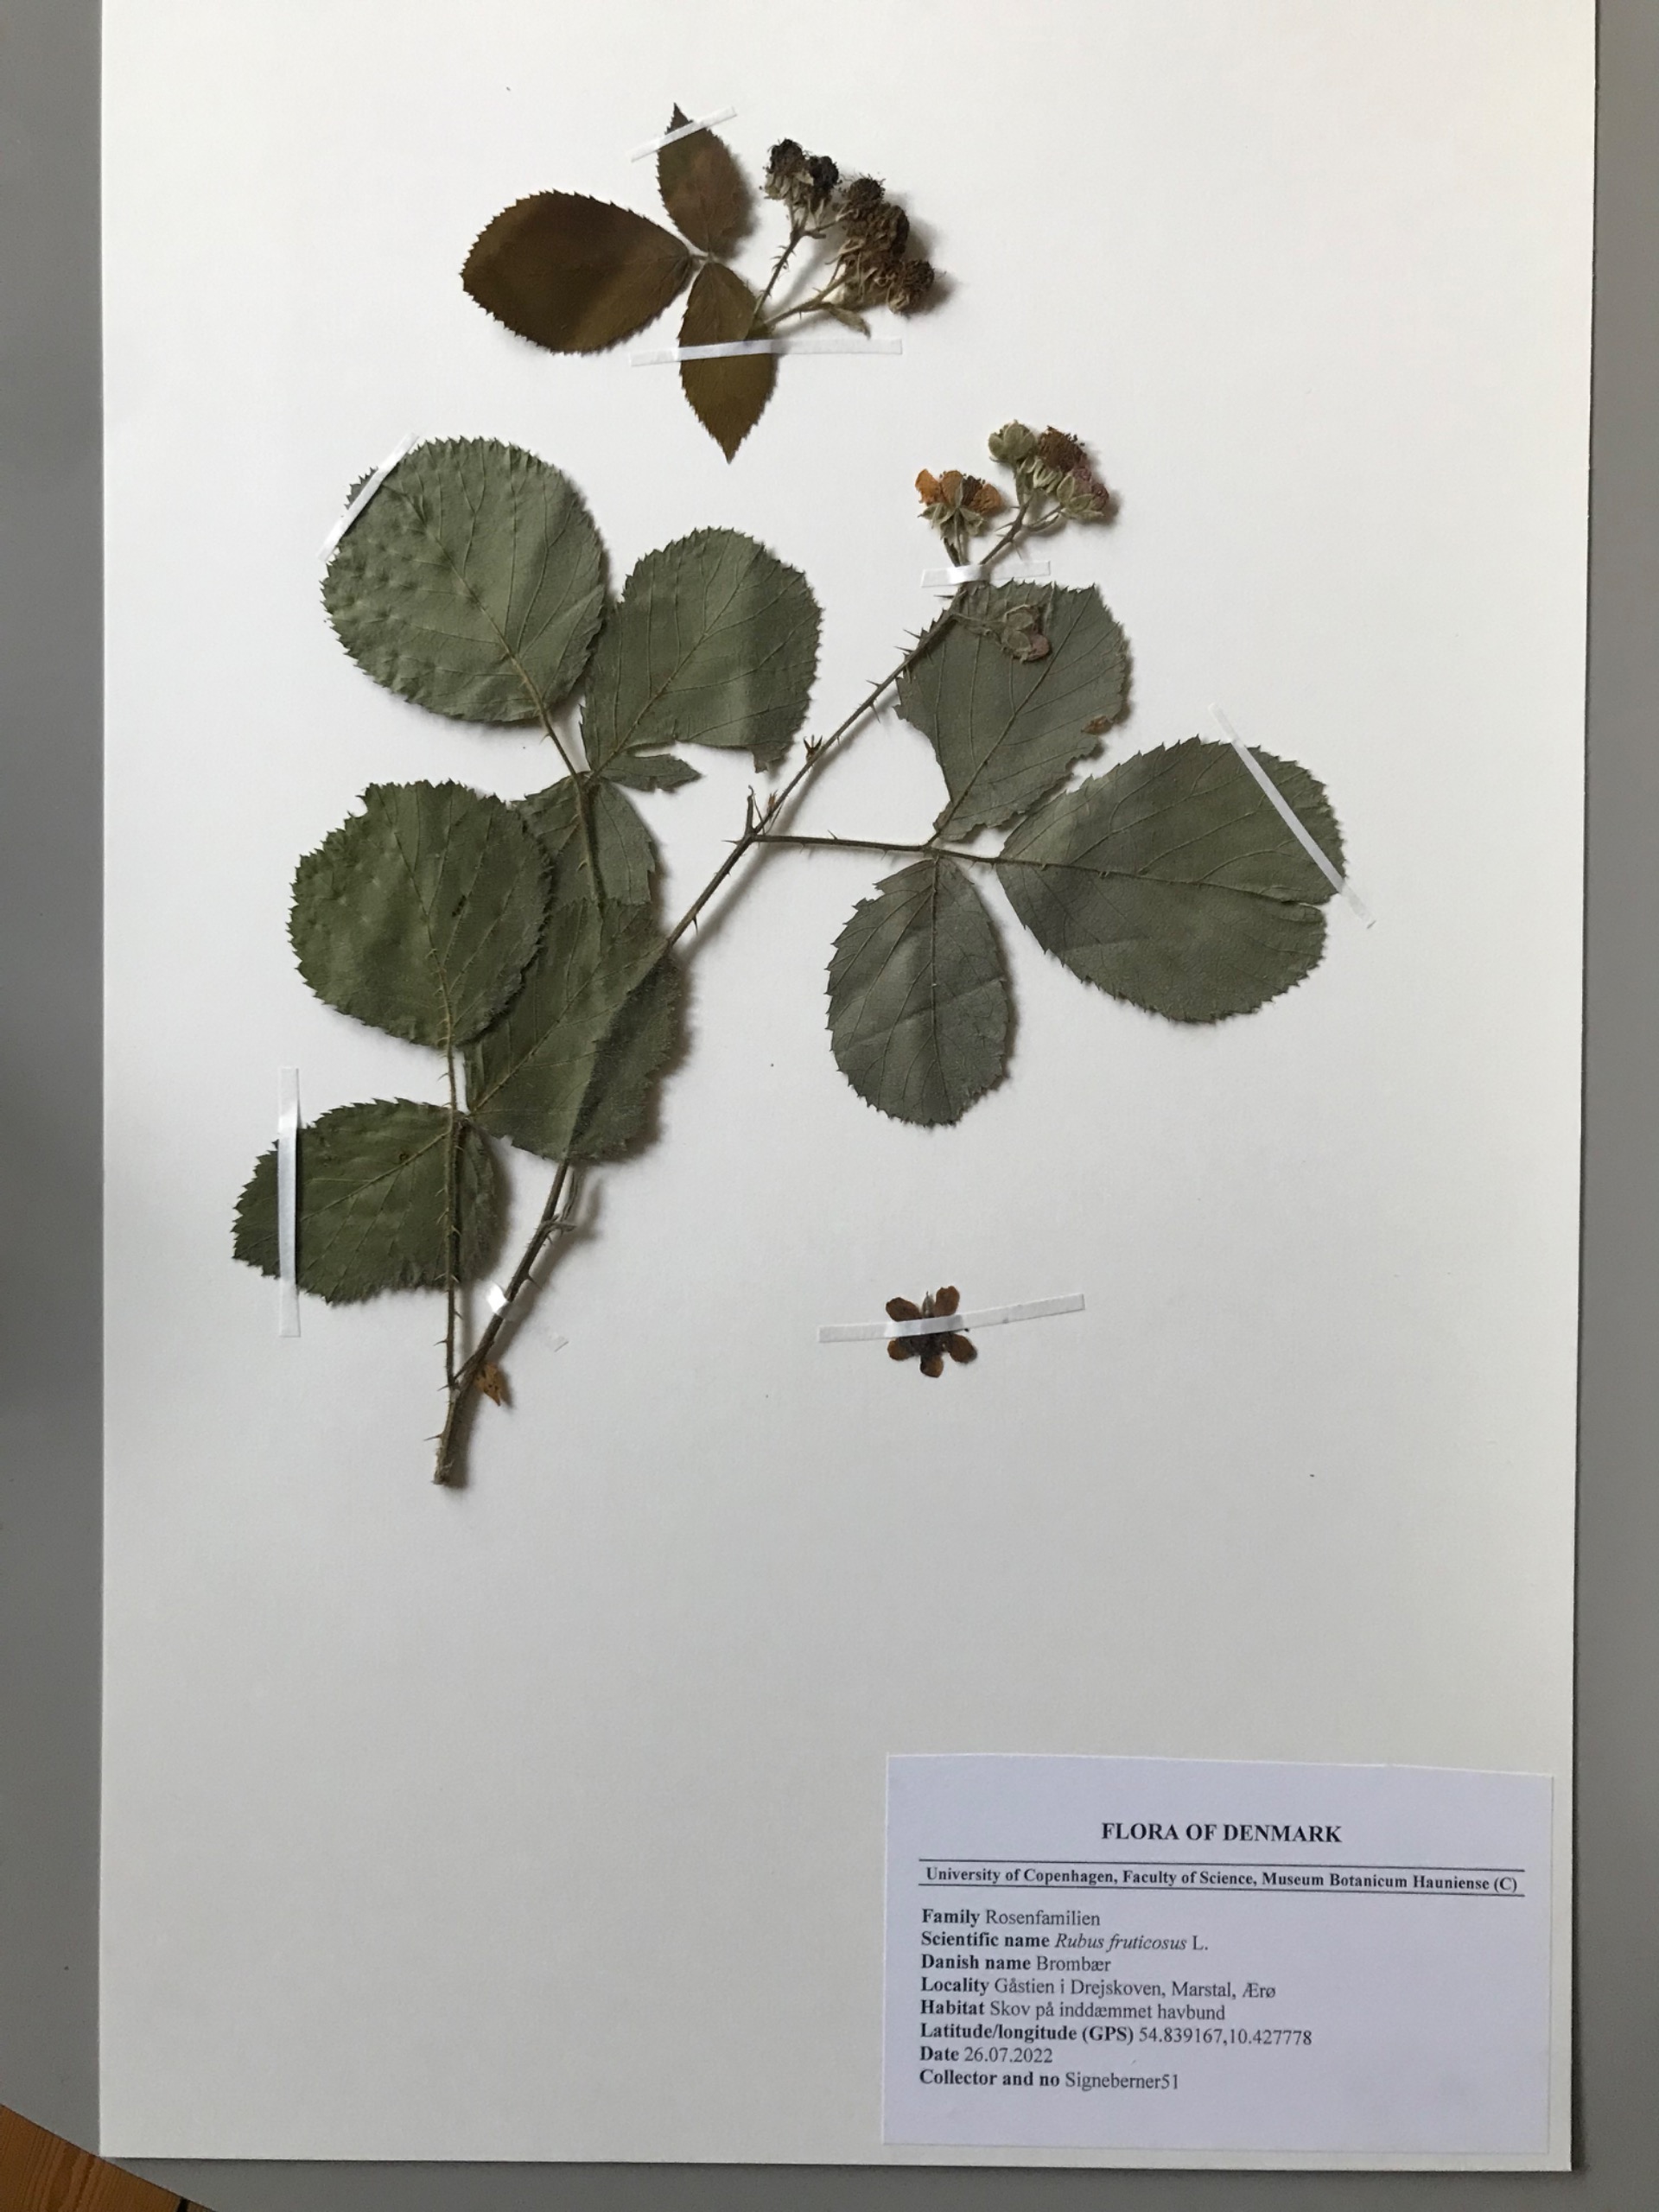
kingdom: Plantae
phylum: Tracheophyta
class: Magnoliopsida
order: Rosales
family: Rosaceae
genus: Rubus
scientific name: Rubus vestitus
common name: Rundbladet brombær
